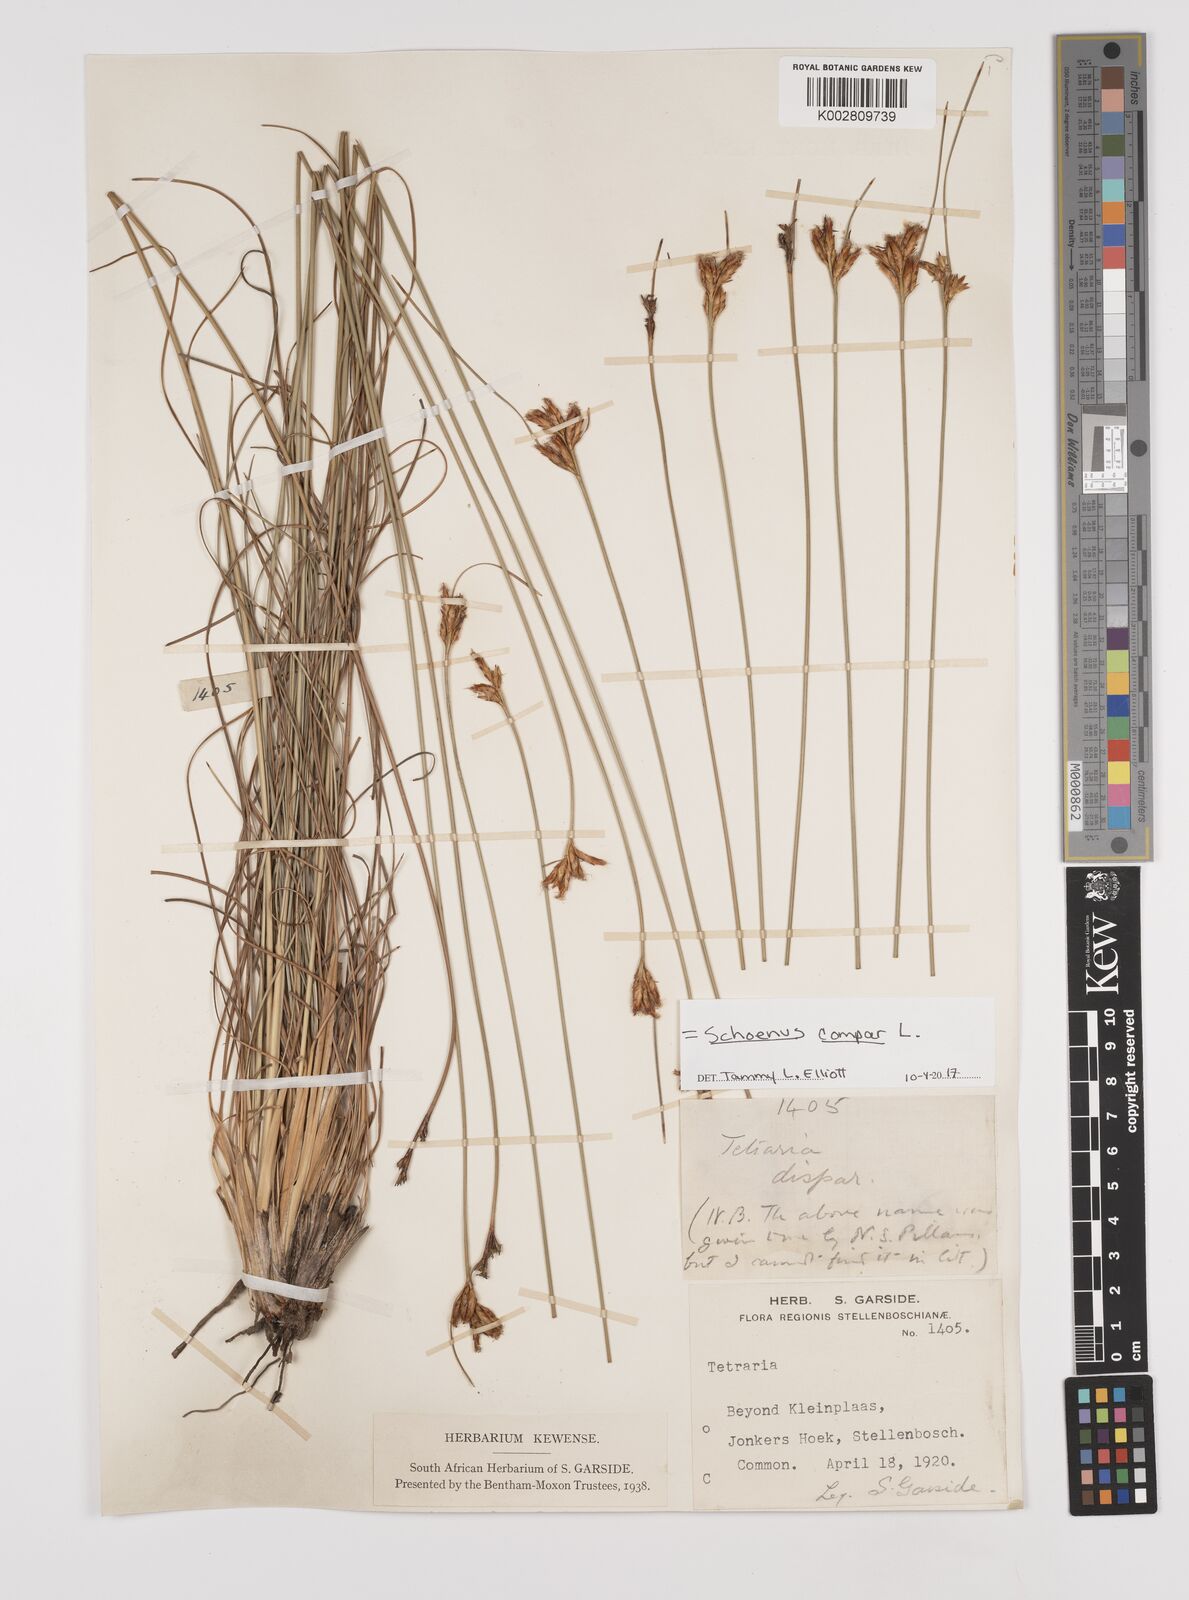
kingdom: Plantae
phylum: Tracheophyta
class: Liliopsida
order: Poales
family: Cyperaceae
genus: Schoenus
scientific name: Schoenus compar
